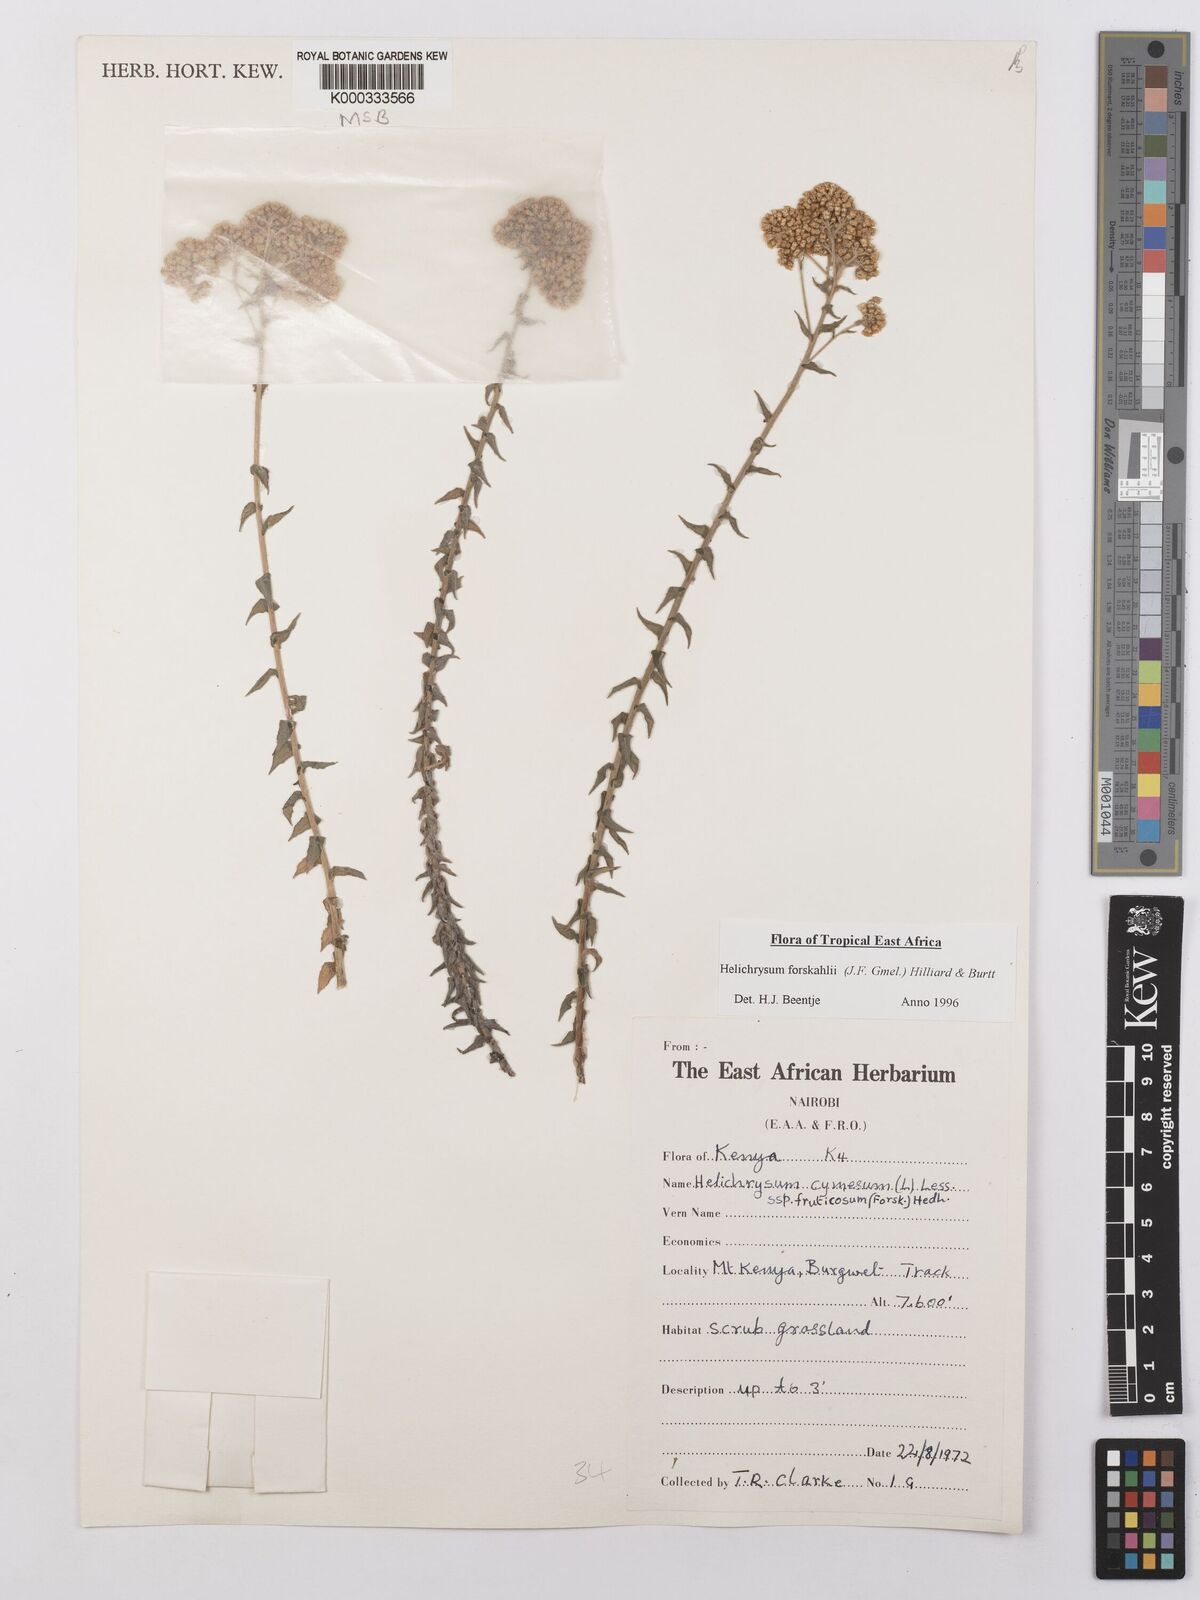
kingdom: Plantae
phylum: Tracheophyta
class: Magnoliopsida
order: Asterales
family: Asteraceae
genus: Helichrysum
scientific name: Helichrysum
